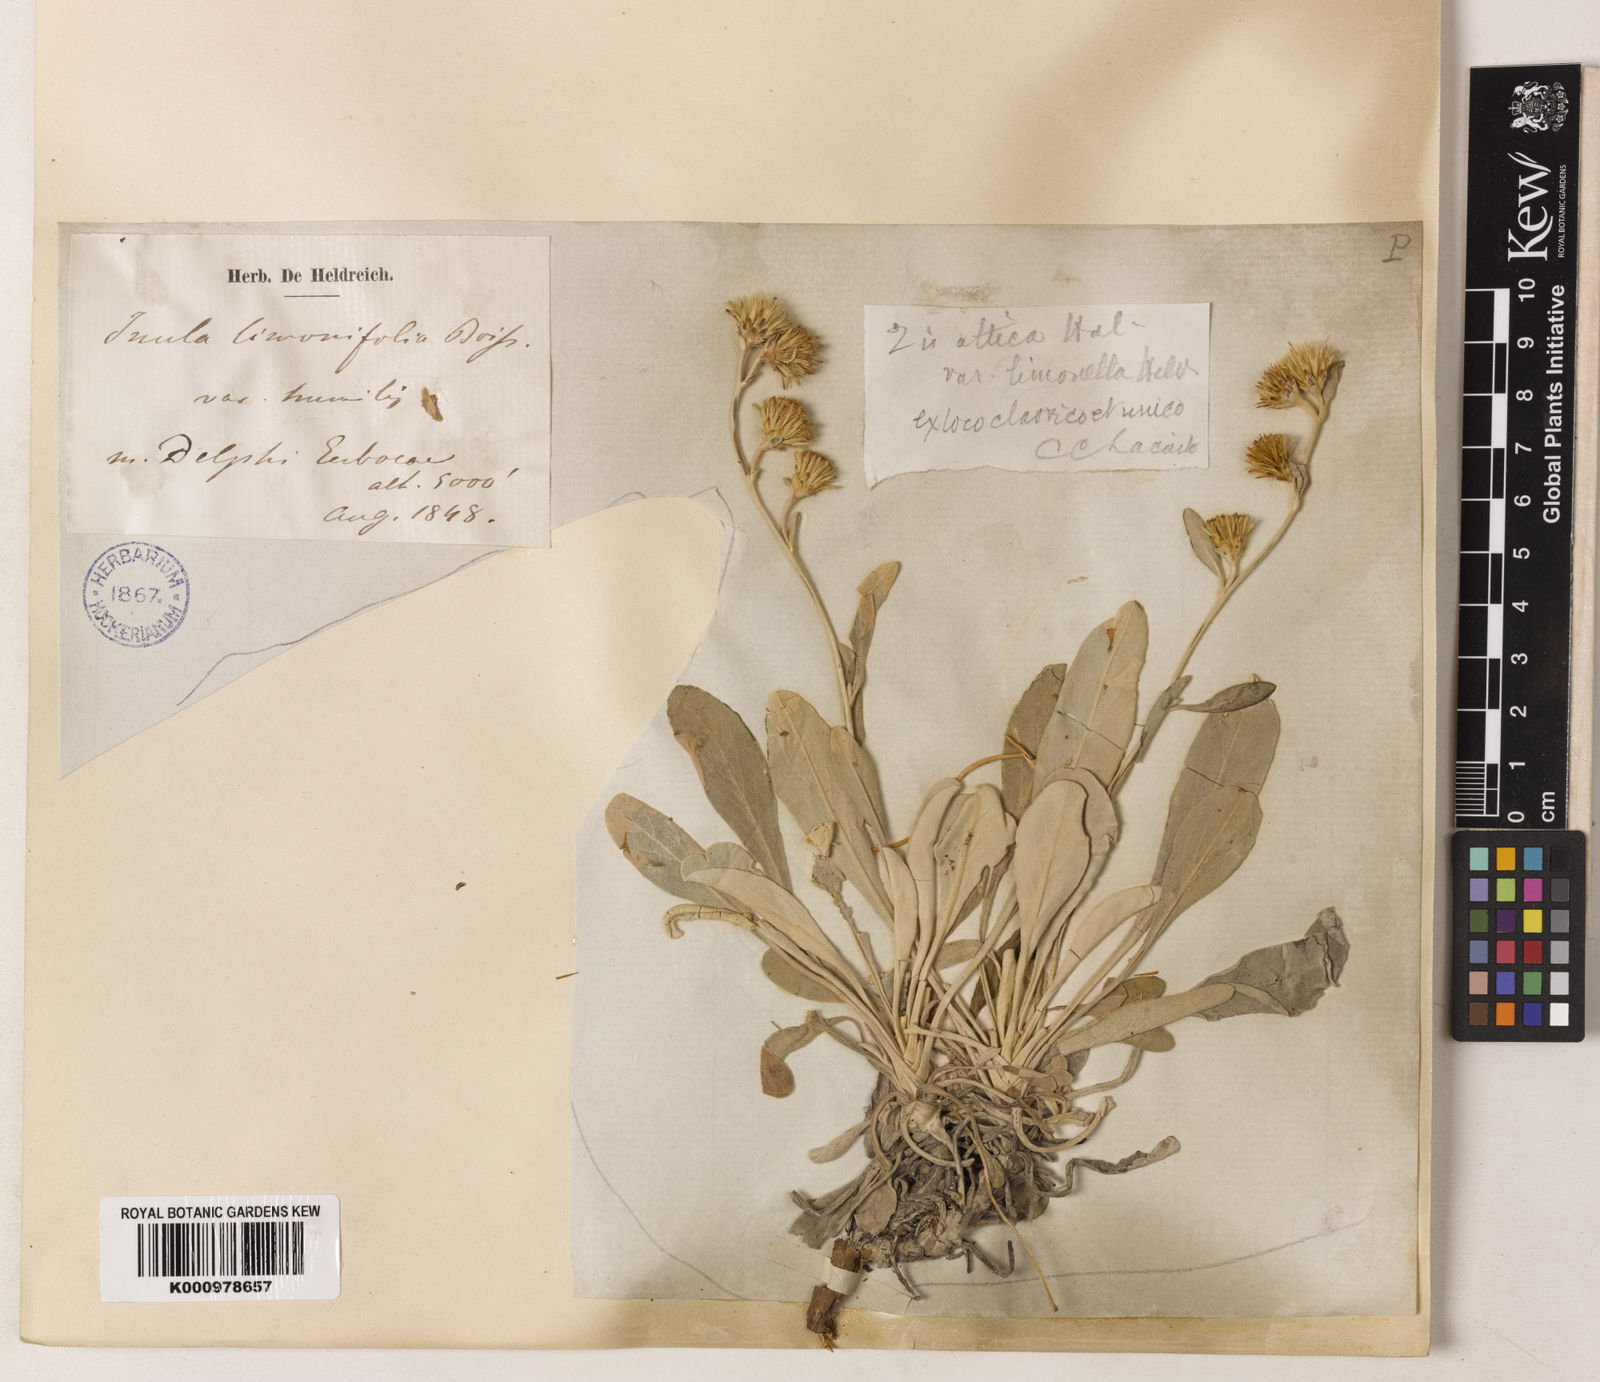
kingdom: Plantae
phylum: Tracheophyta
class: Magnoliopsida
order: Asterales
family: Asteraceae
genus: Inula
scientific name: Inula
